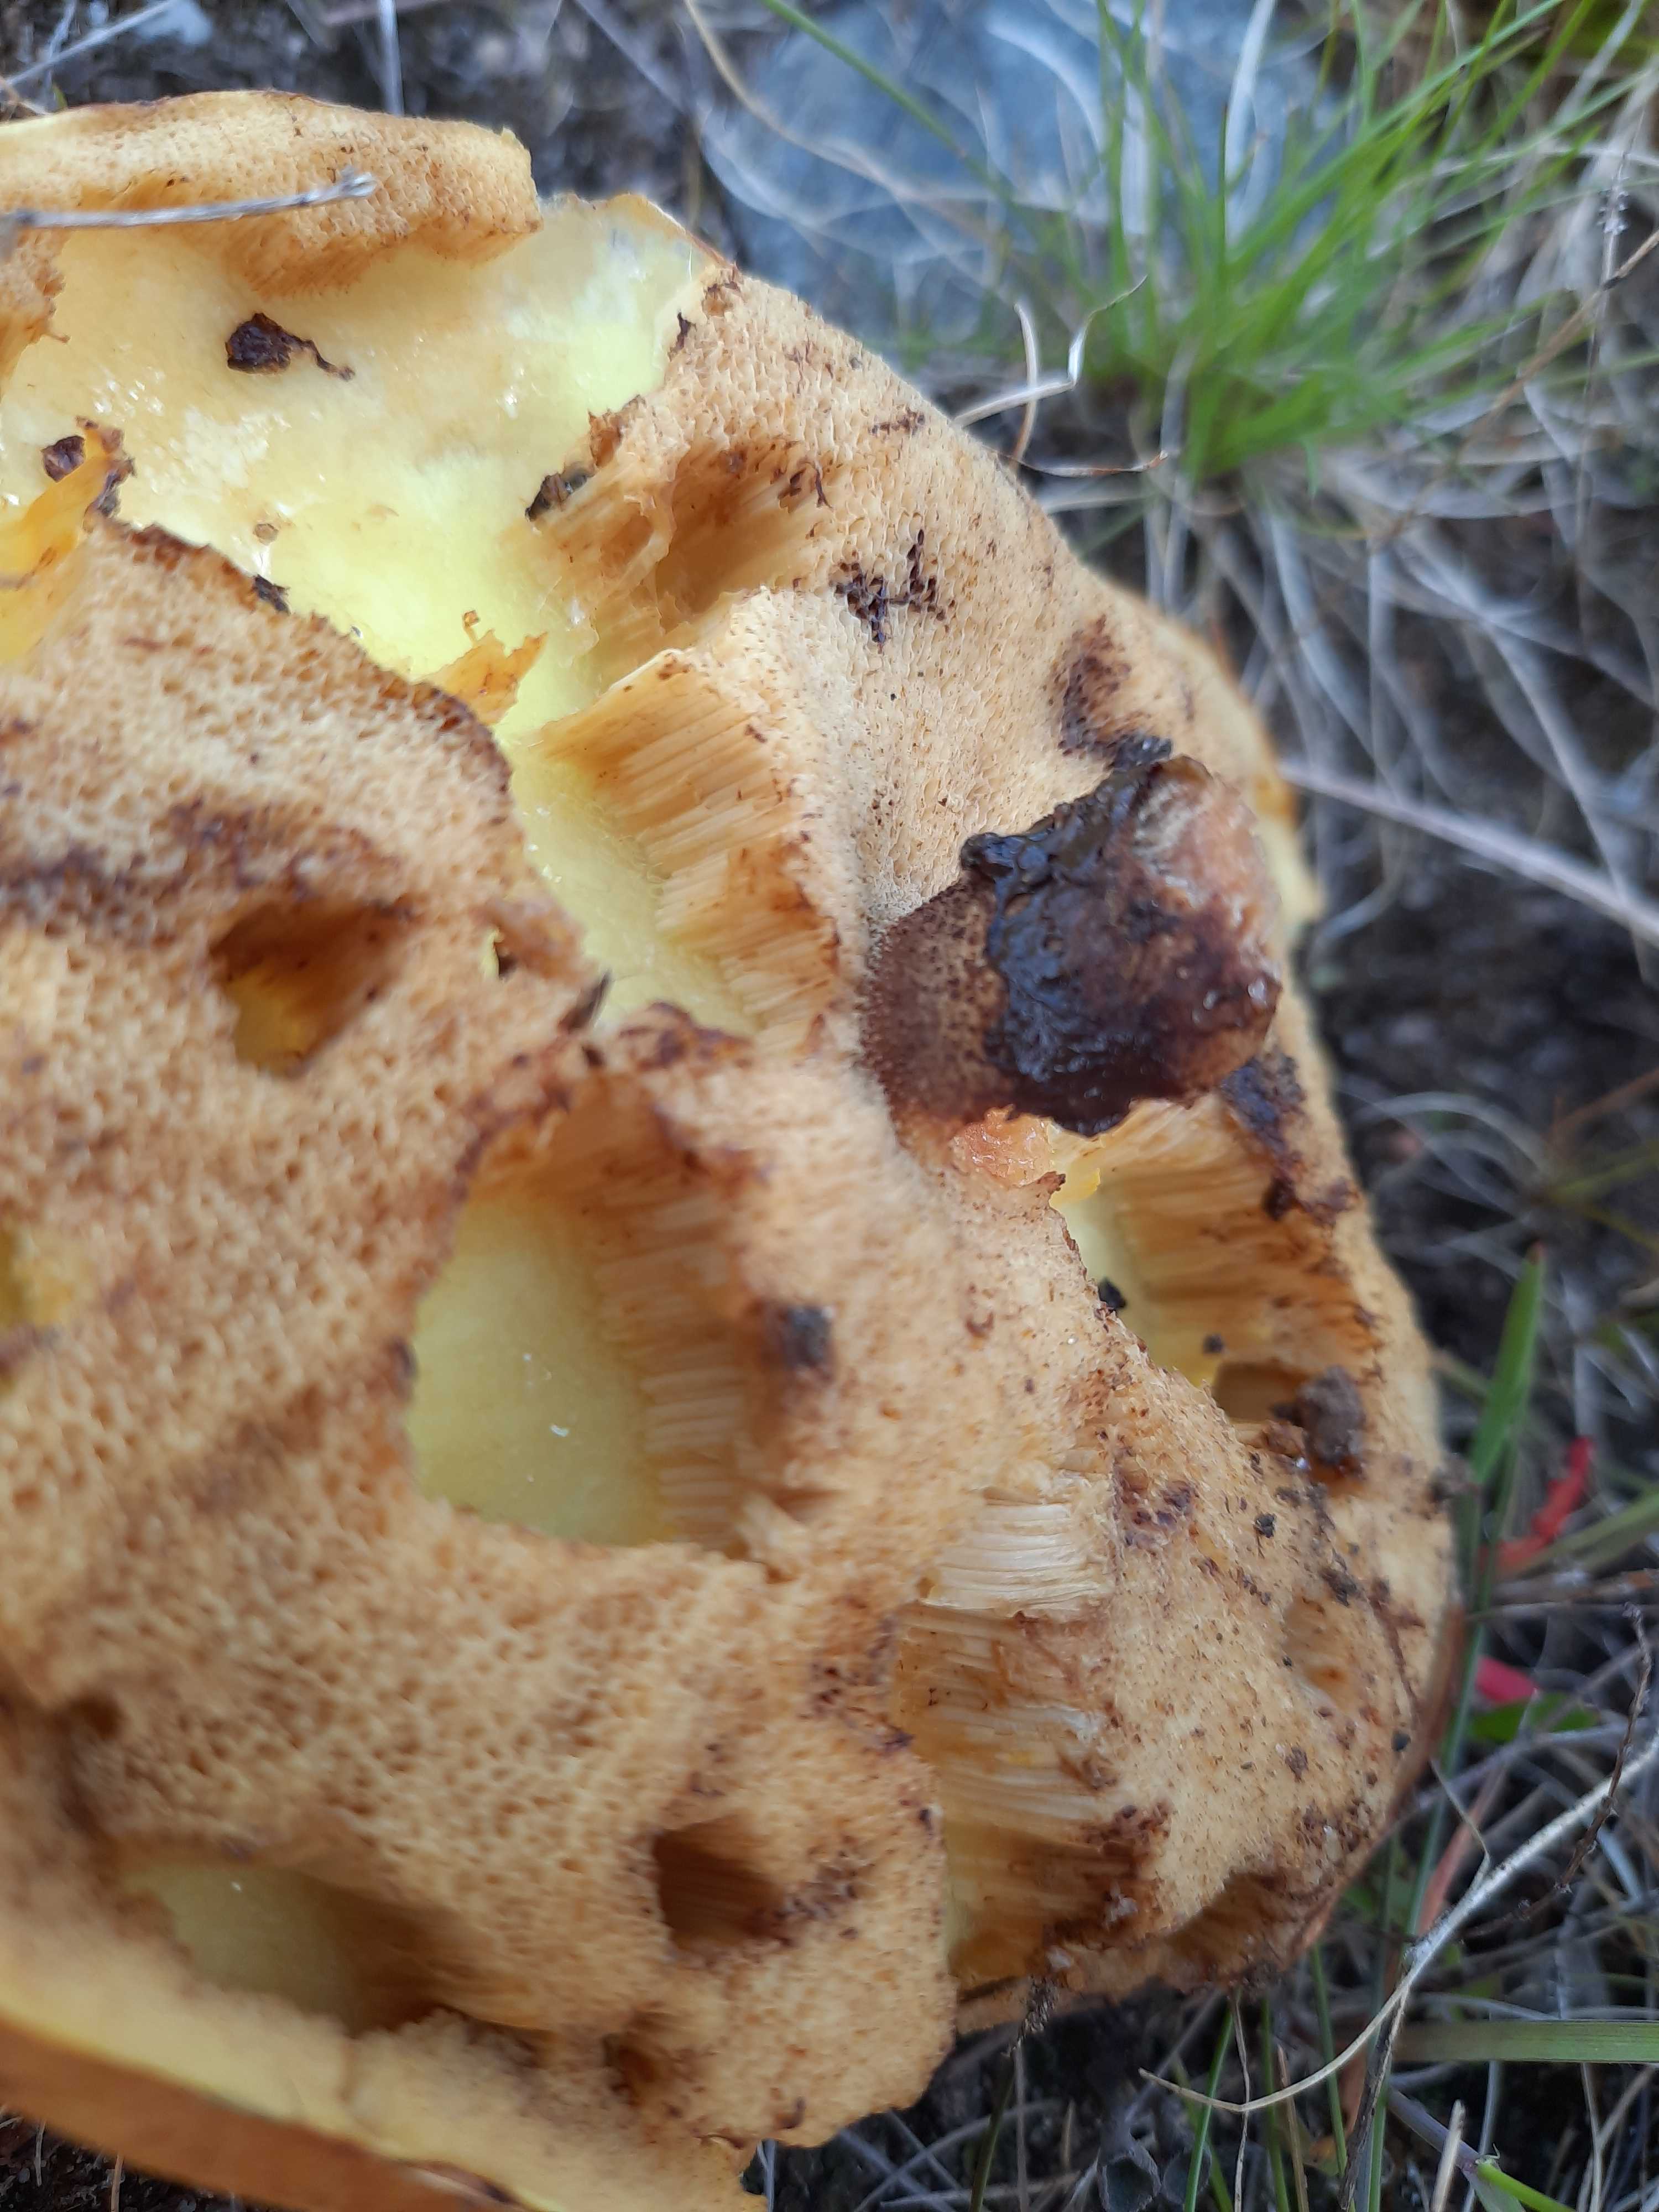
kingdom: Fungi
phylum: Basidiomycota
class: Agaricomycetes
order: Boletales
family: Suillaceae
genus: Suillus
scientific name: Suillus luteus
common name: brungul slimrørhat
